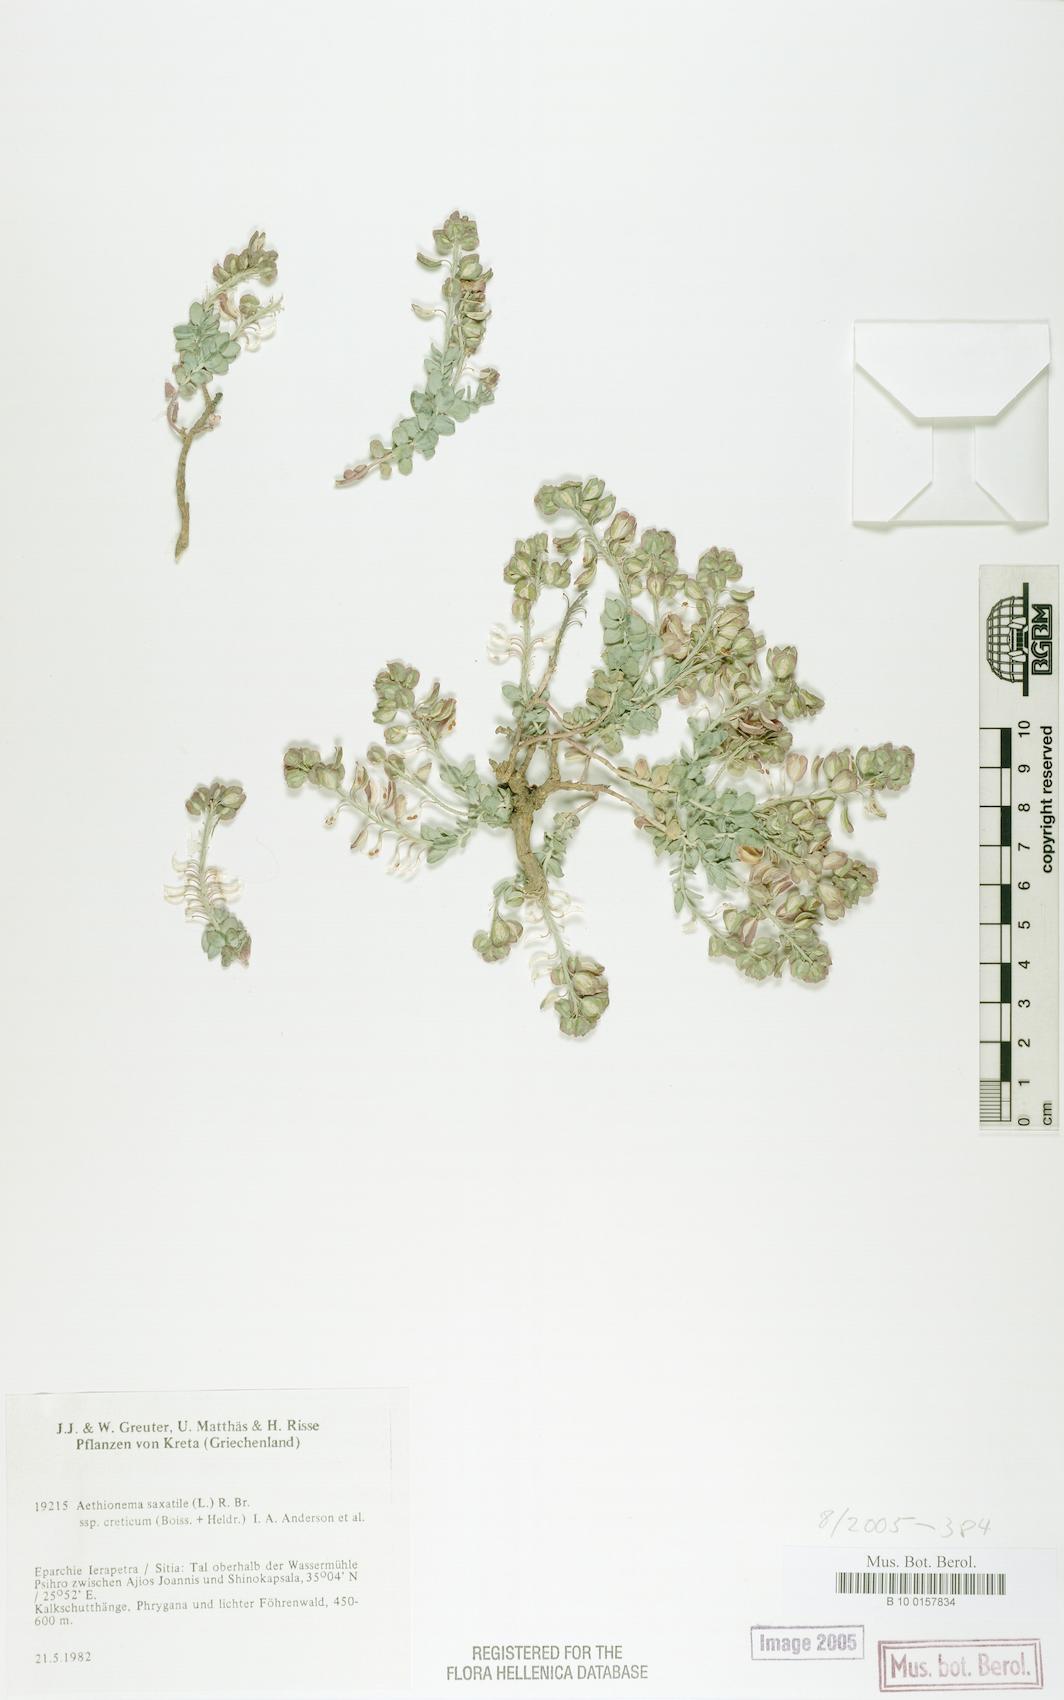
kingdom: Plantae
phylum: Tracheophyta
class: Magnoliopsida
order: Brassicales
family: Brassicaceae
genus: Aethionema
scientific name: Aethionema saxatile
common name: Burnt candytuft
